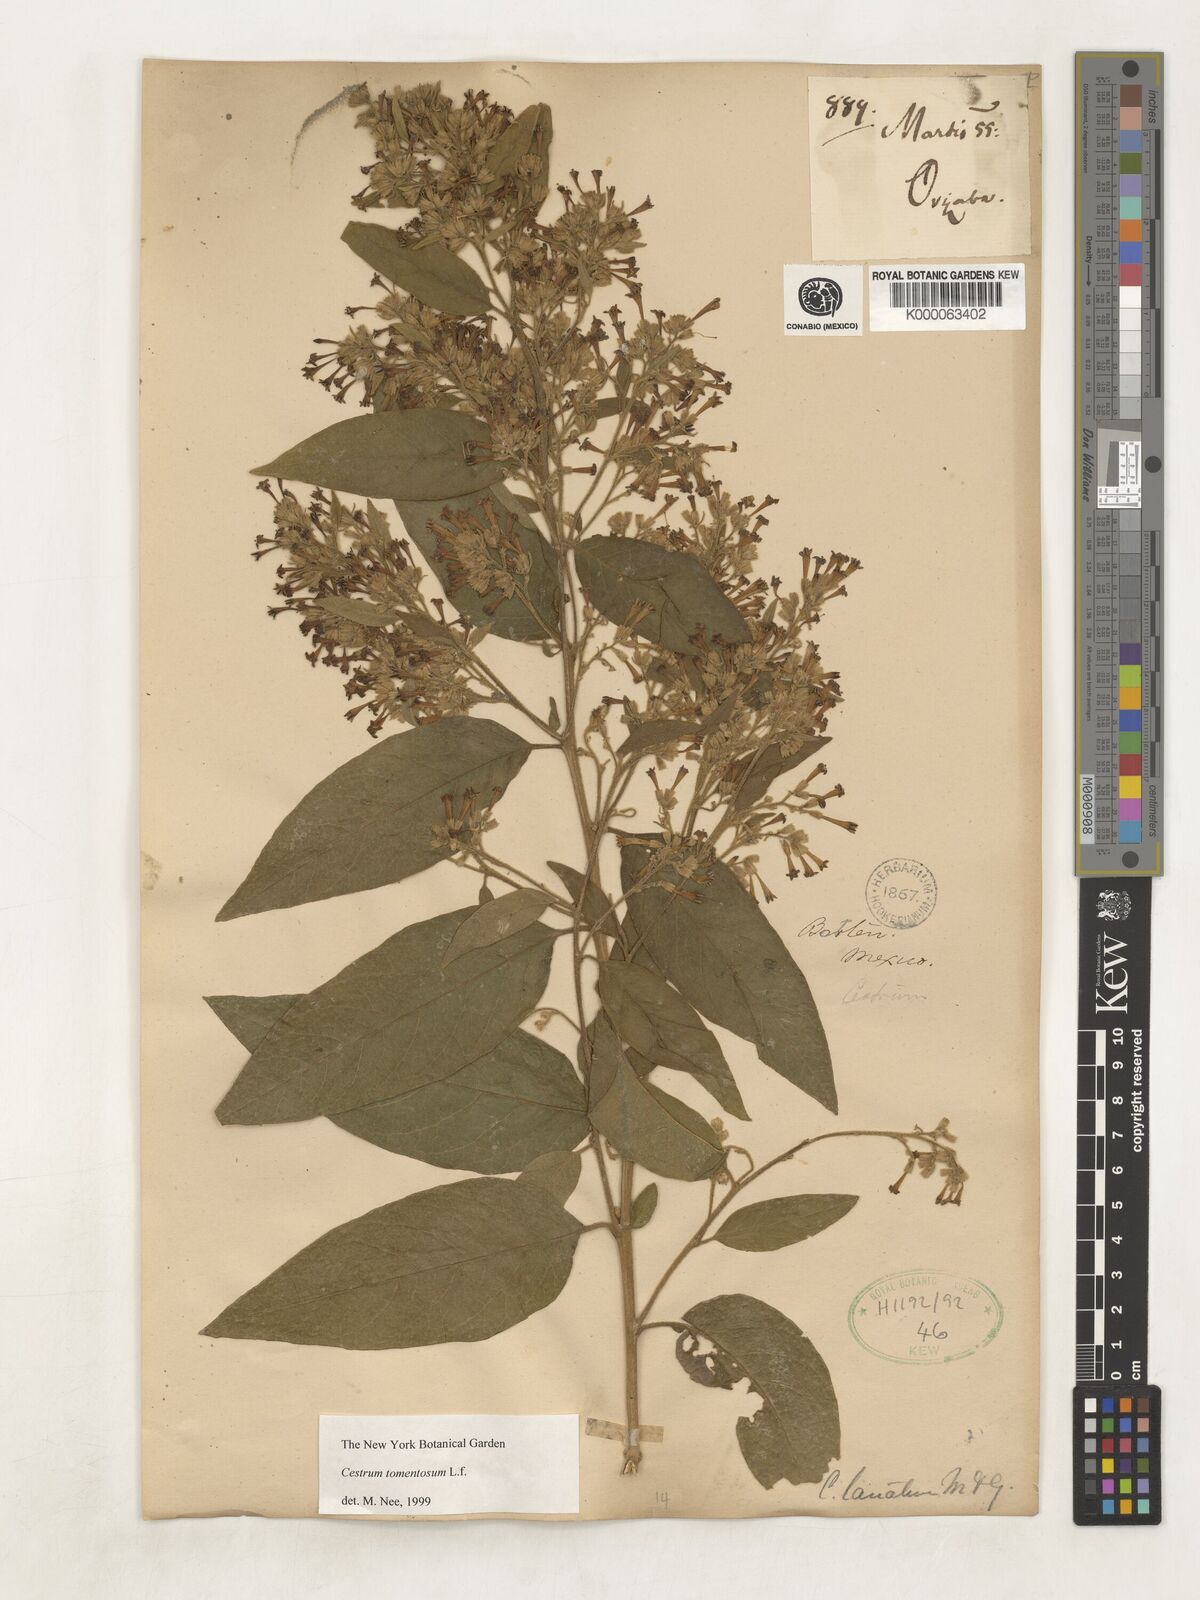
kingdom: Plantae
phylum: Tracheophyta
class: Magnoliopsida
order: Solanales
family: Solanaceae
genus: Cestrum
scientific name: Cestrum tomentosum
